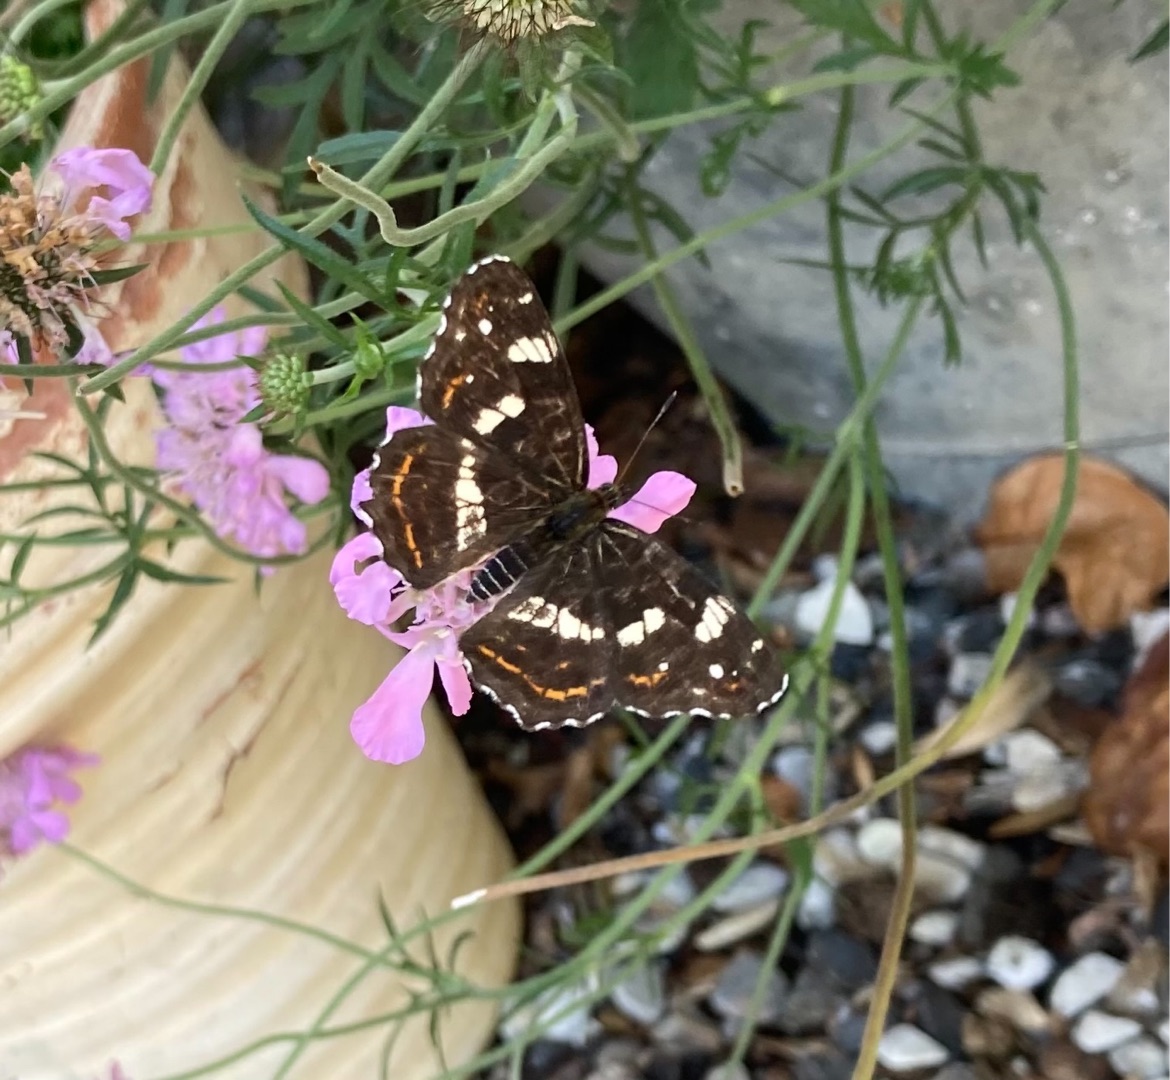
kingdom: Animalia
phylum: Arthropoda
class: Insecta
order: Lepidoptera
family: Nymphalidae
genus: Araschnia
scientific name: Araschnia levana
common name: Nældesommerfugl
